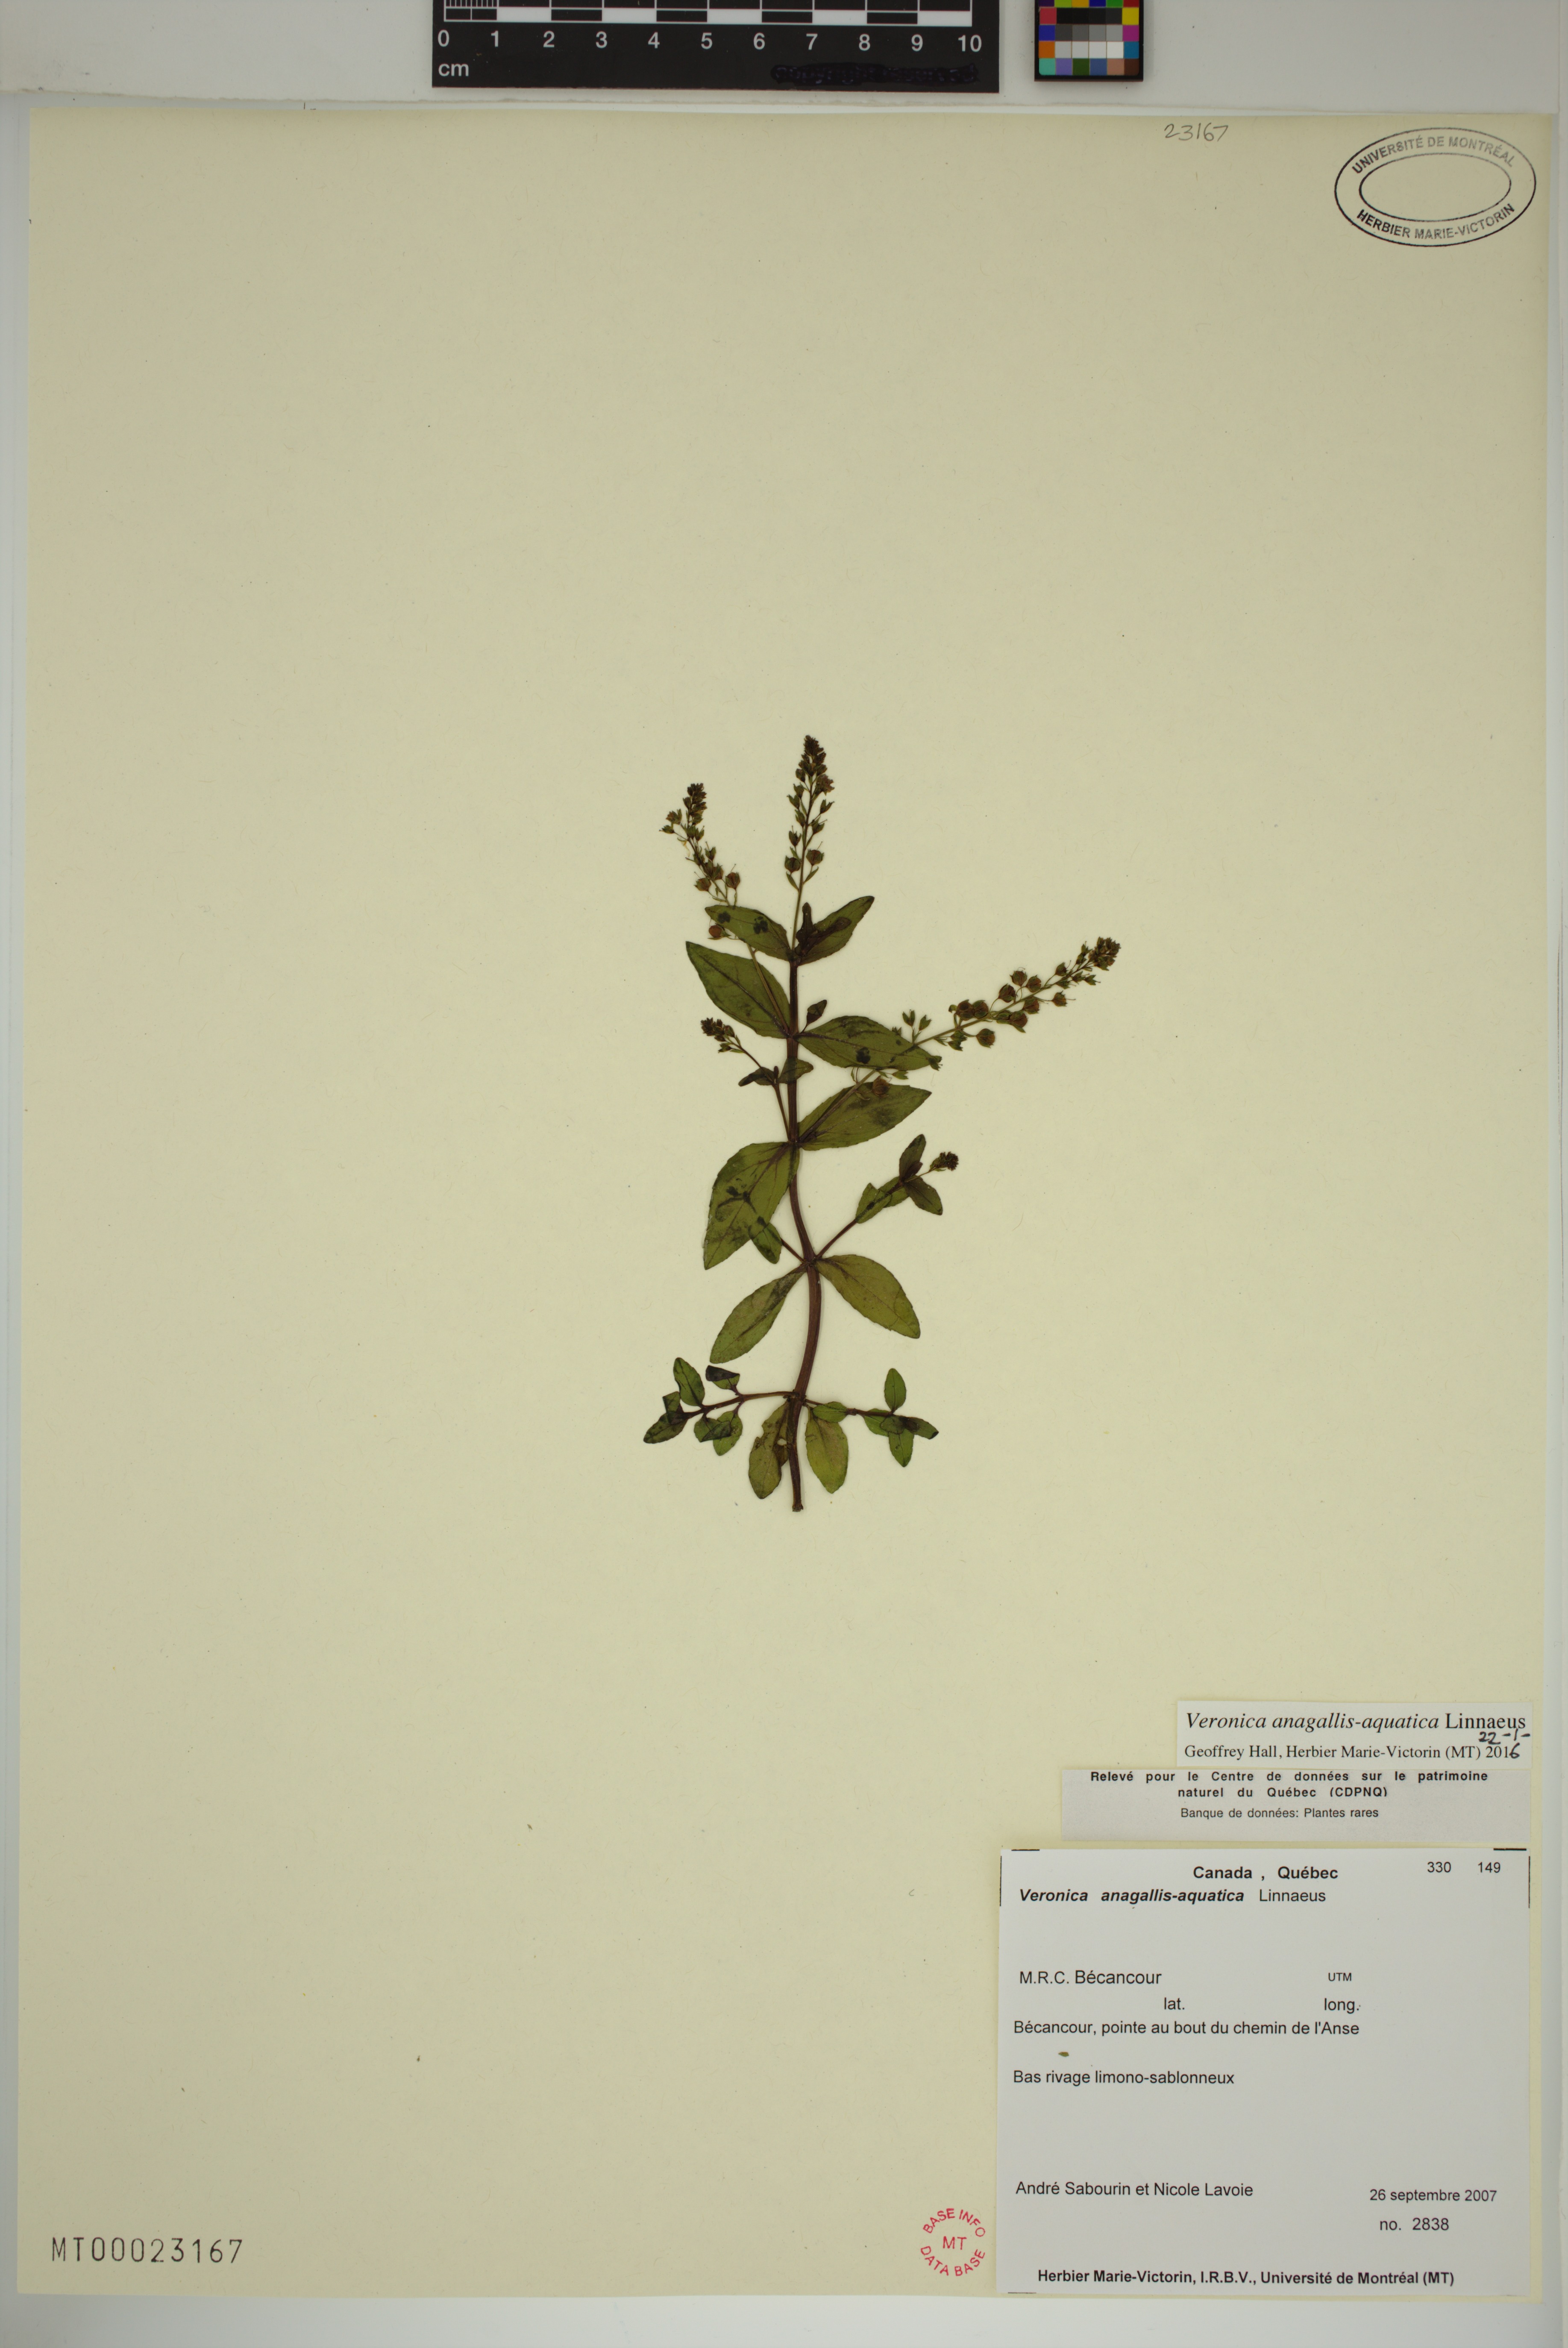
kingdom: Plantae
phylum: Tracheophyta
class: Magnoliopsida
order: Lamiales
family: Plantaginaceae
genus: Veronica
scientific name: Veronica anagallis-aquatica
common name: Water speedwell
